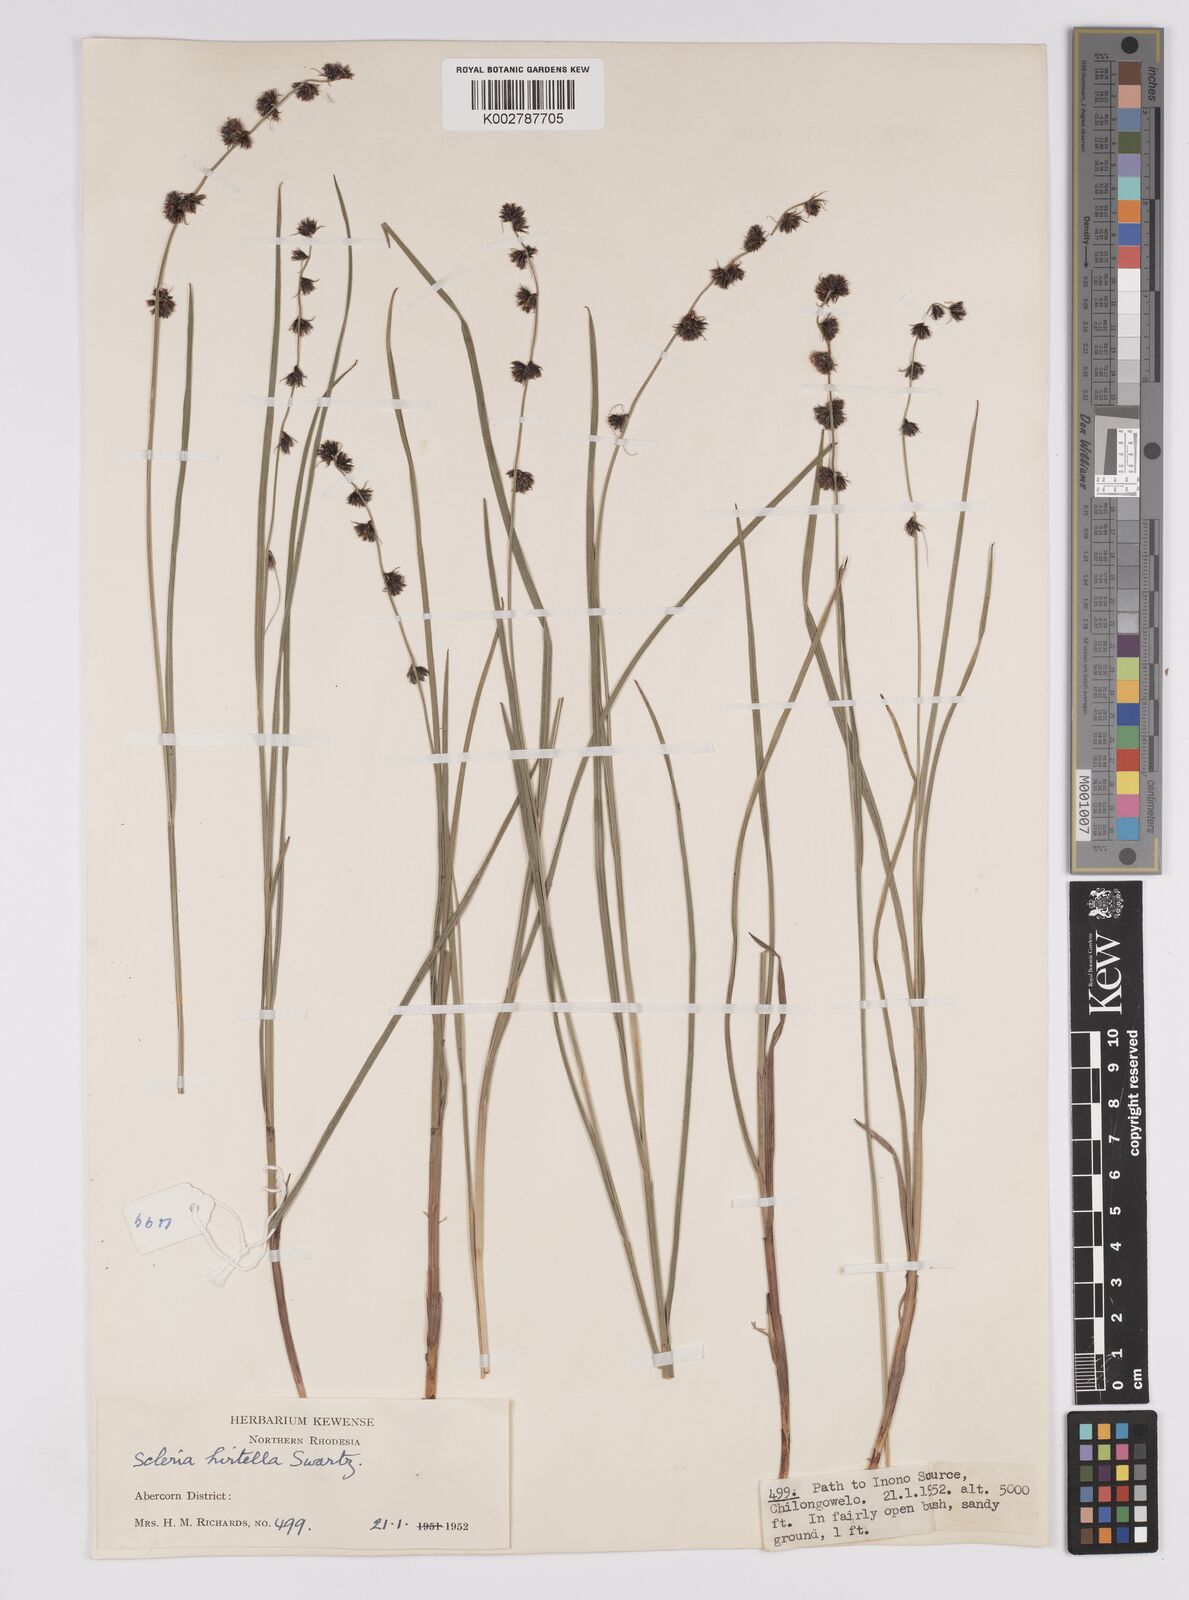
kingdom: Plantae
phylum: Tracheophyta
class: Liliopsida
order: Poales
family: Cyperaceae
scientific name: Cyperaceae
